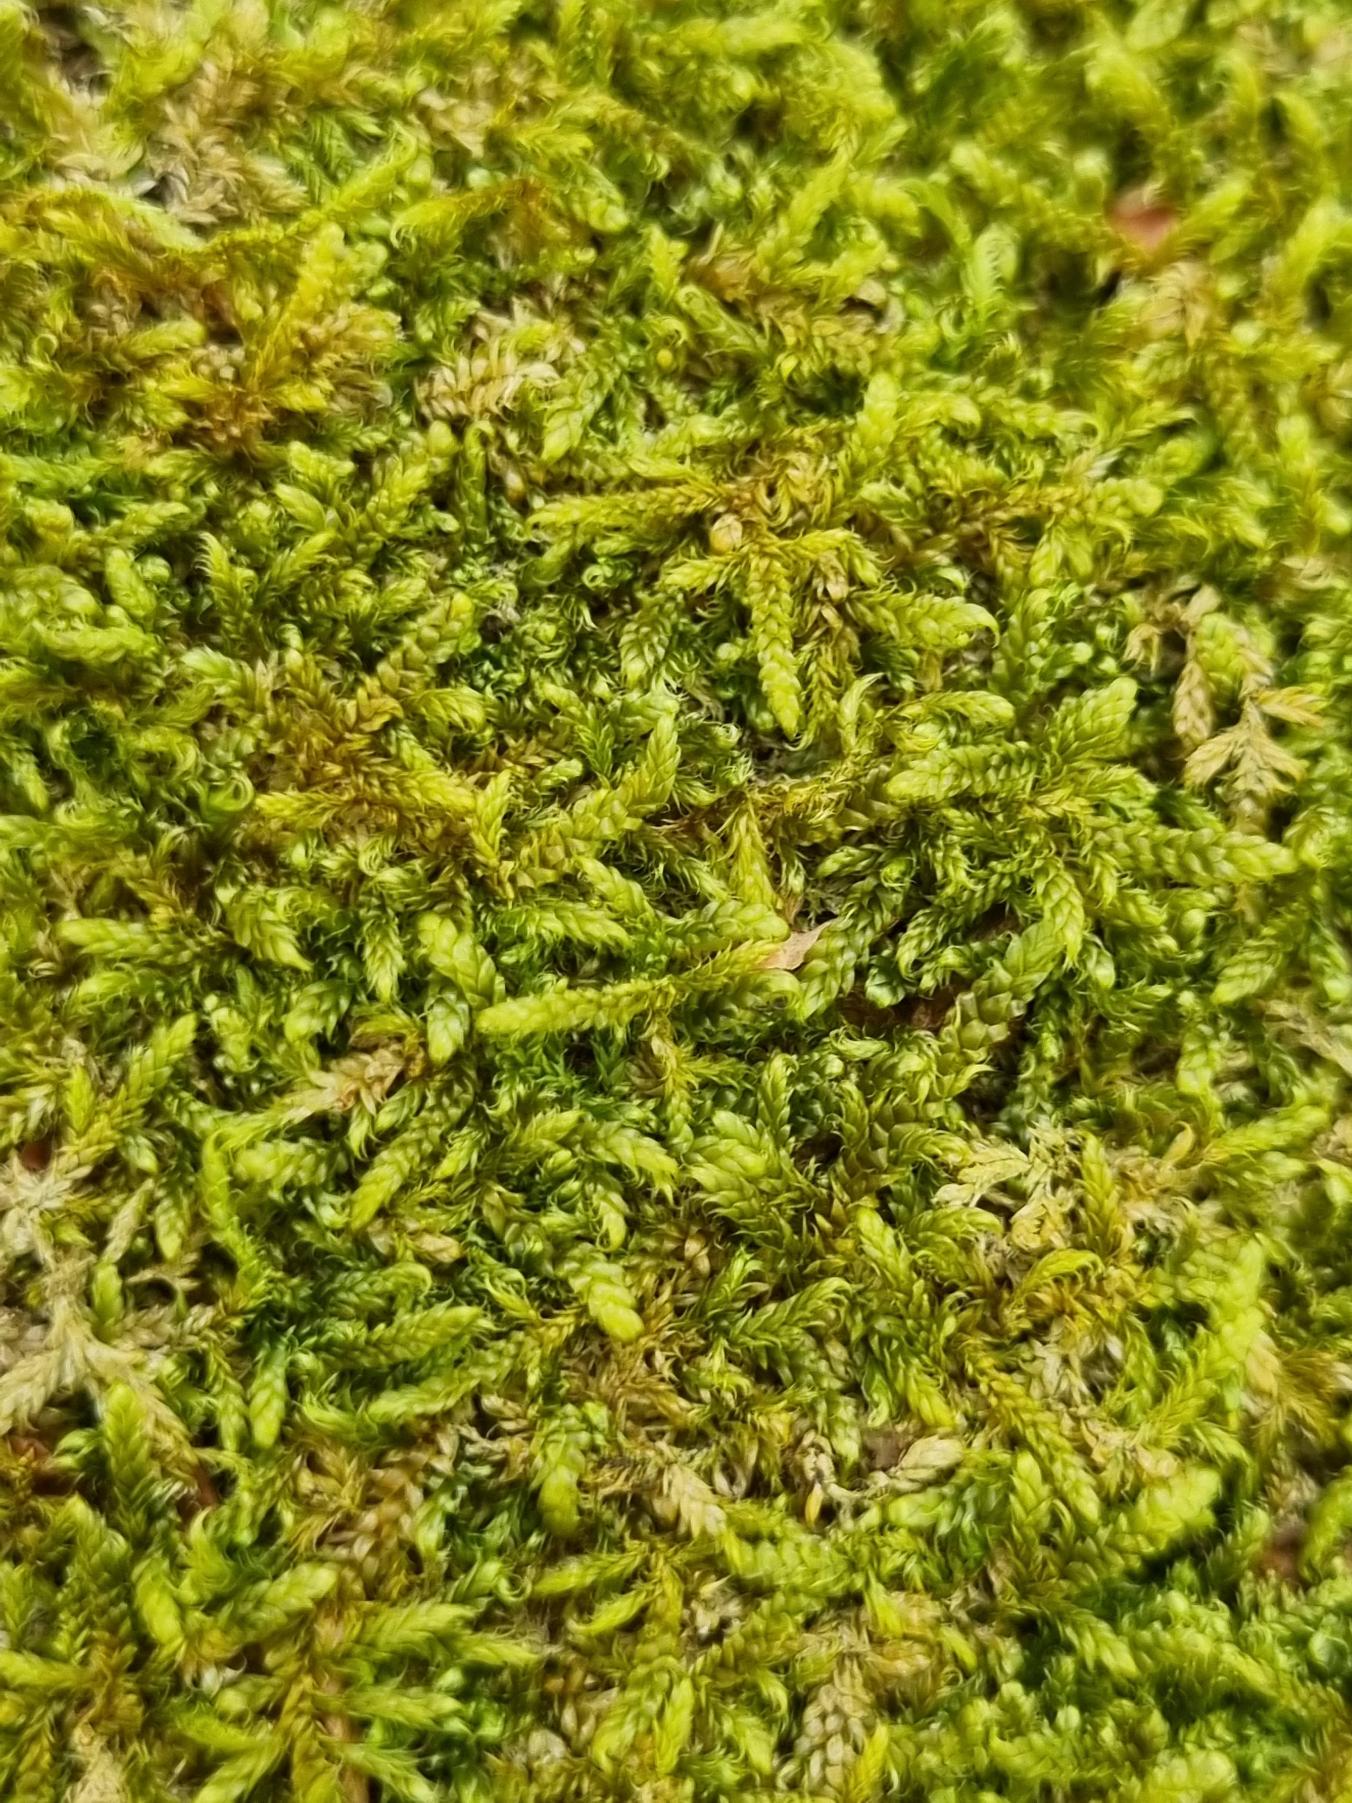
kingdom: Plantae
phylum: Bryophyta
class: Bryopsida
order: Hypnales
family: Hypnaceae
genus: Hypnum
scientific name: Hypnum cupressiforme
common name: Almindelig cypresmos
